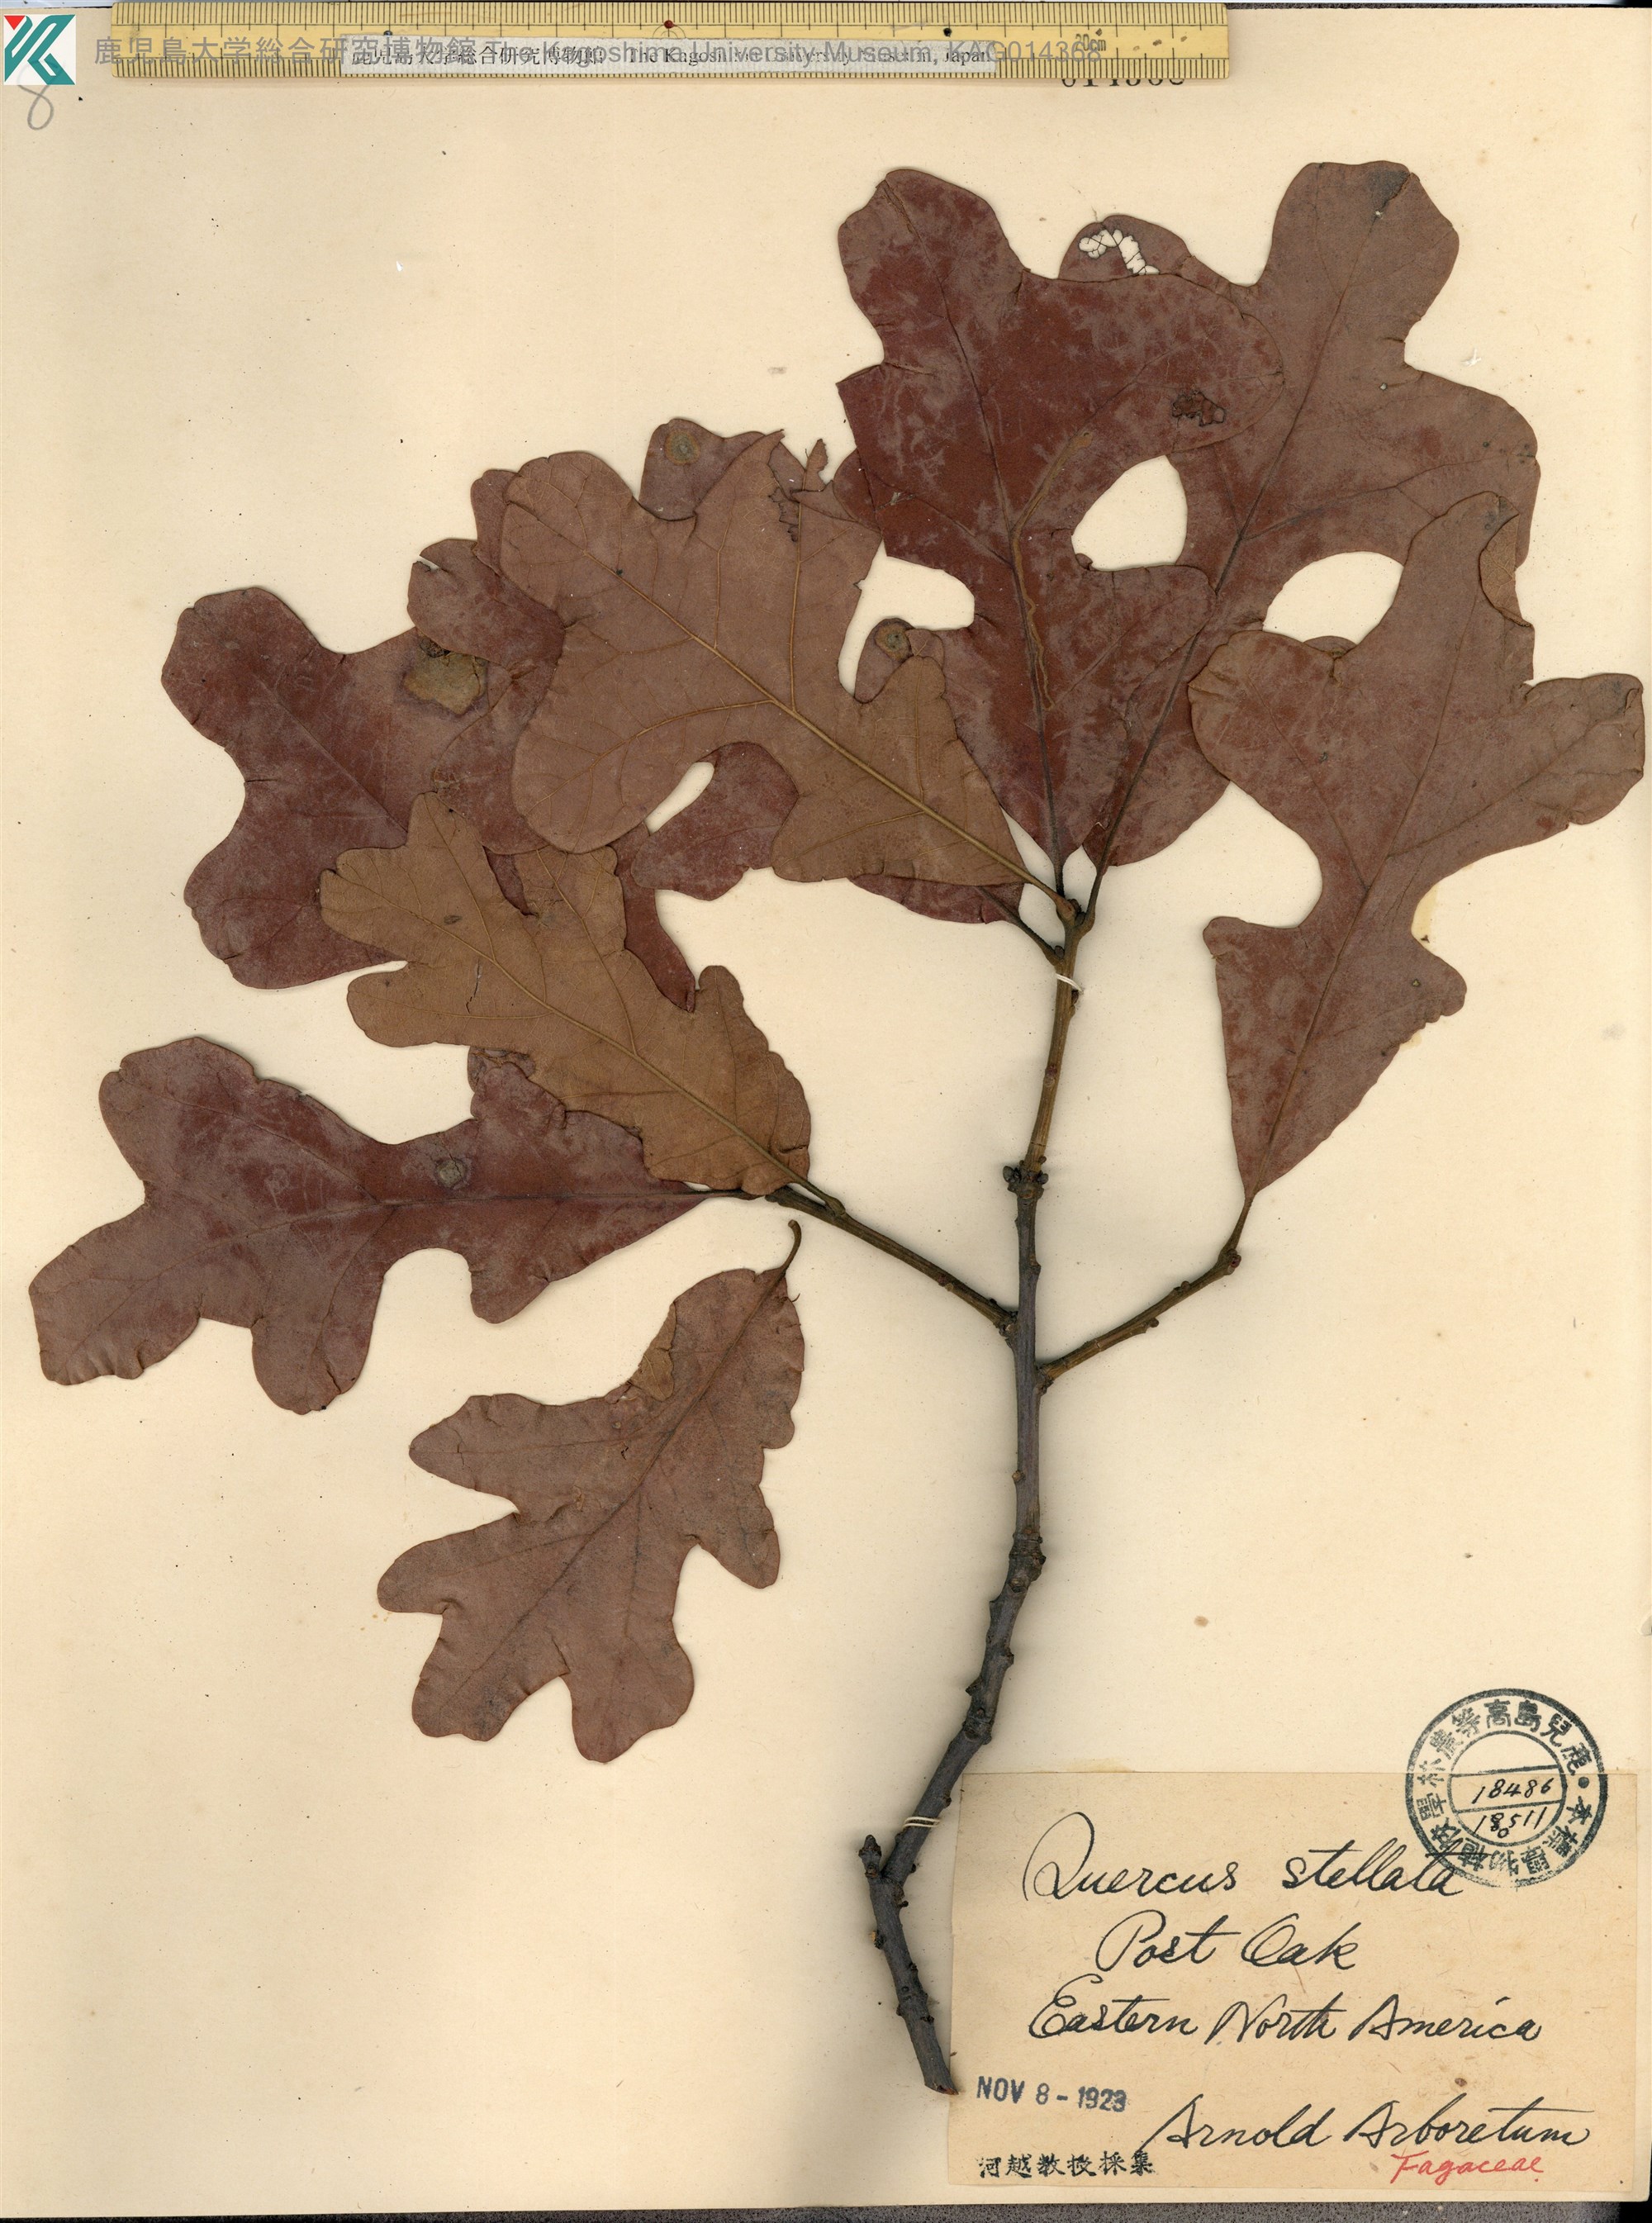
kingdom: Plantae
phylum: Tracheophyta
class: Magnoliopsida
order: Fagales
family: Fagaceae
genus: Quercus
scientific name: Quercus stellata
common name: Post oak
